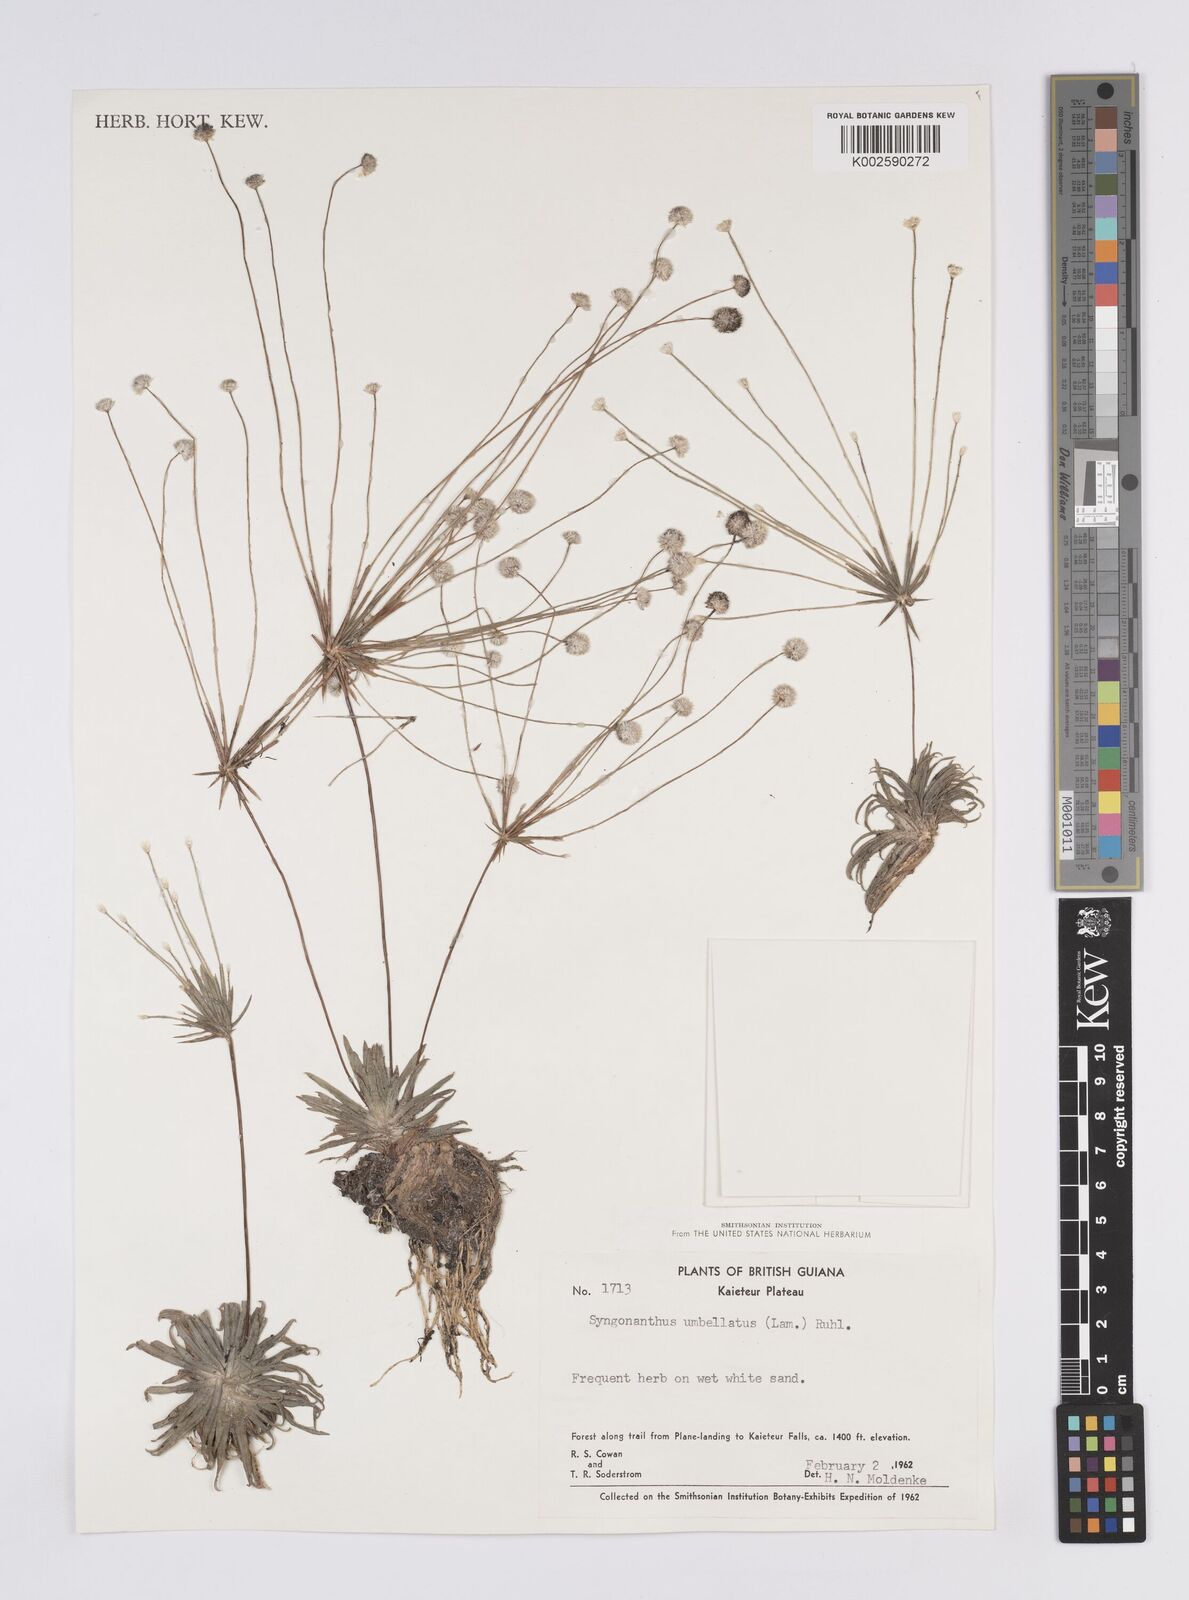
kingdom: Plantae
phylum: Tracheophyta
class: Liliopsida
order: Poales
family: Eriocaulaceae
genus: Syngonanthus
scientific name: Syngonanthus umbellatus
